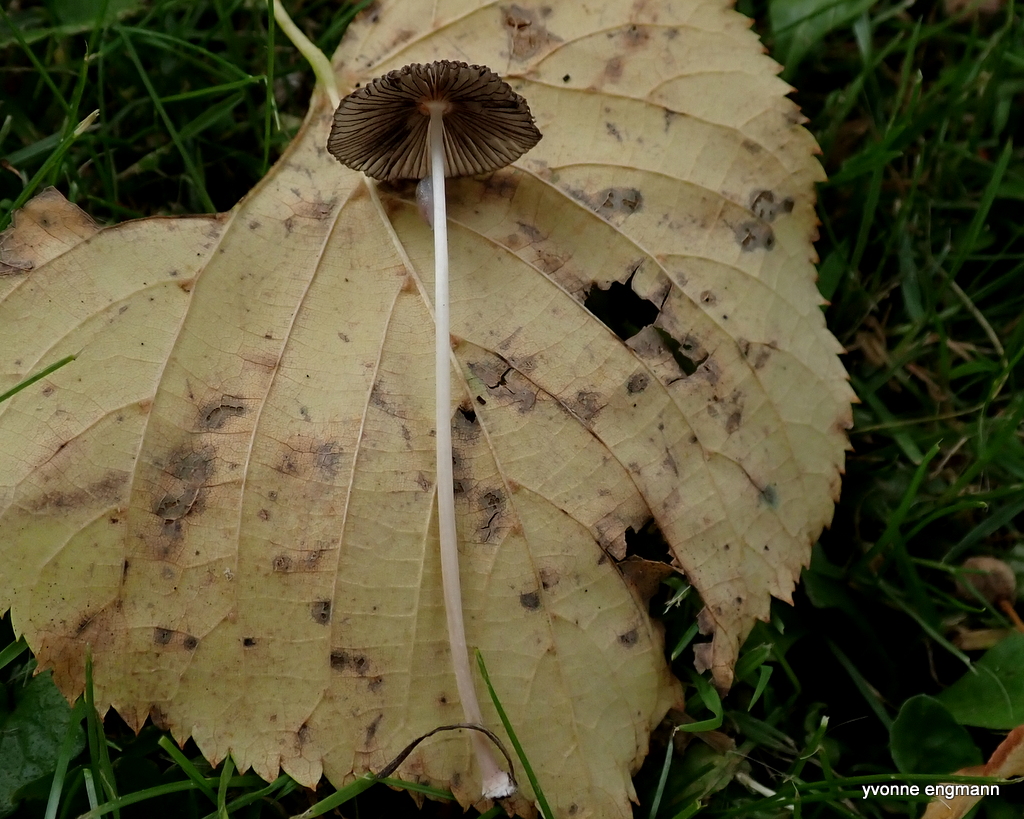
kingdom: Fungi
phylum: Basidiomycota
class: Agaricomycetes
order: Agaricales
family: Psathyrellaceae
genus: Parasola
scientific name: Parasola
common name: hjulhat
